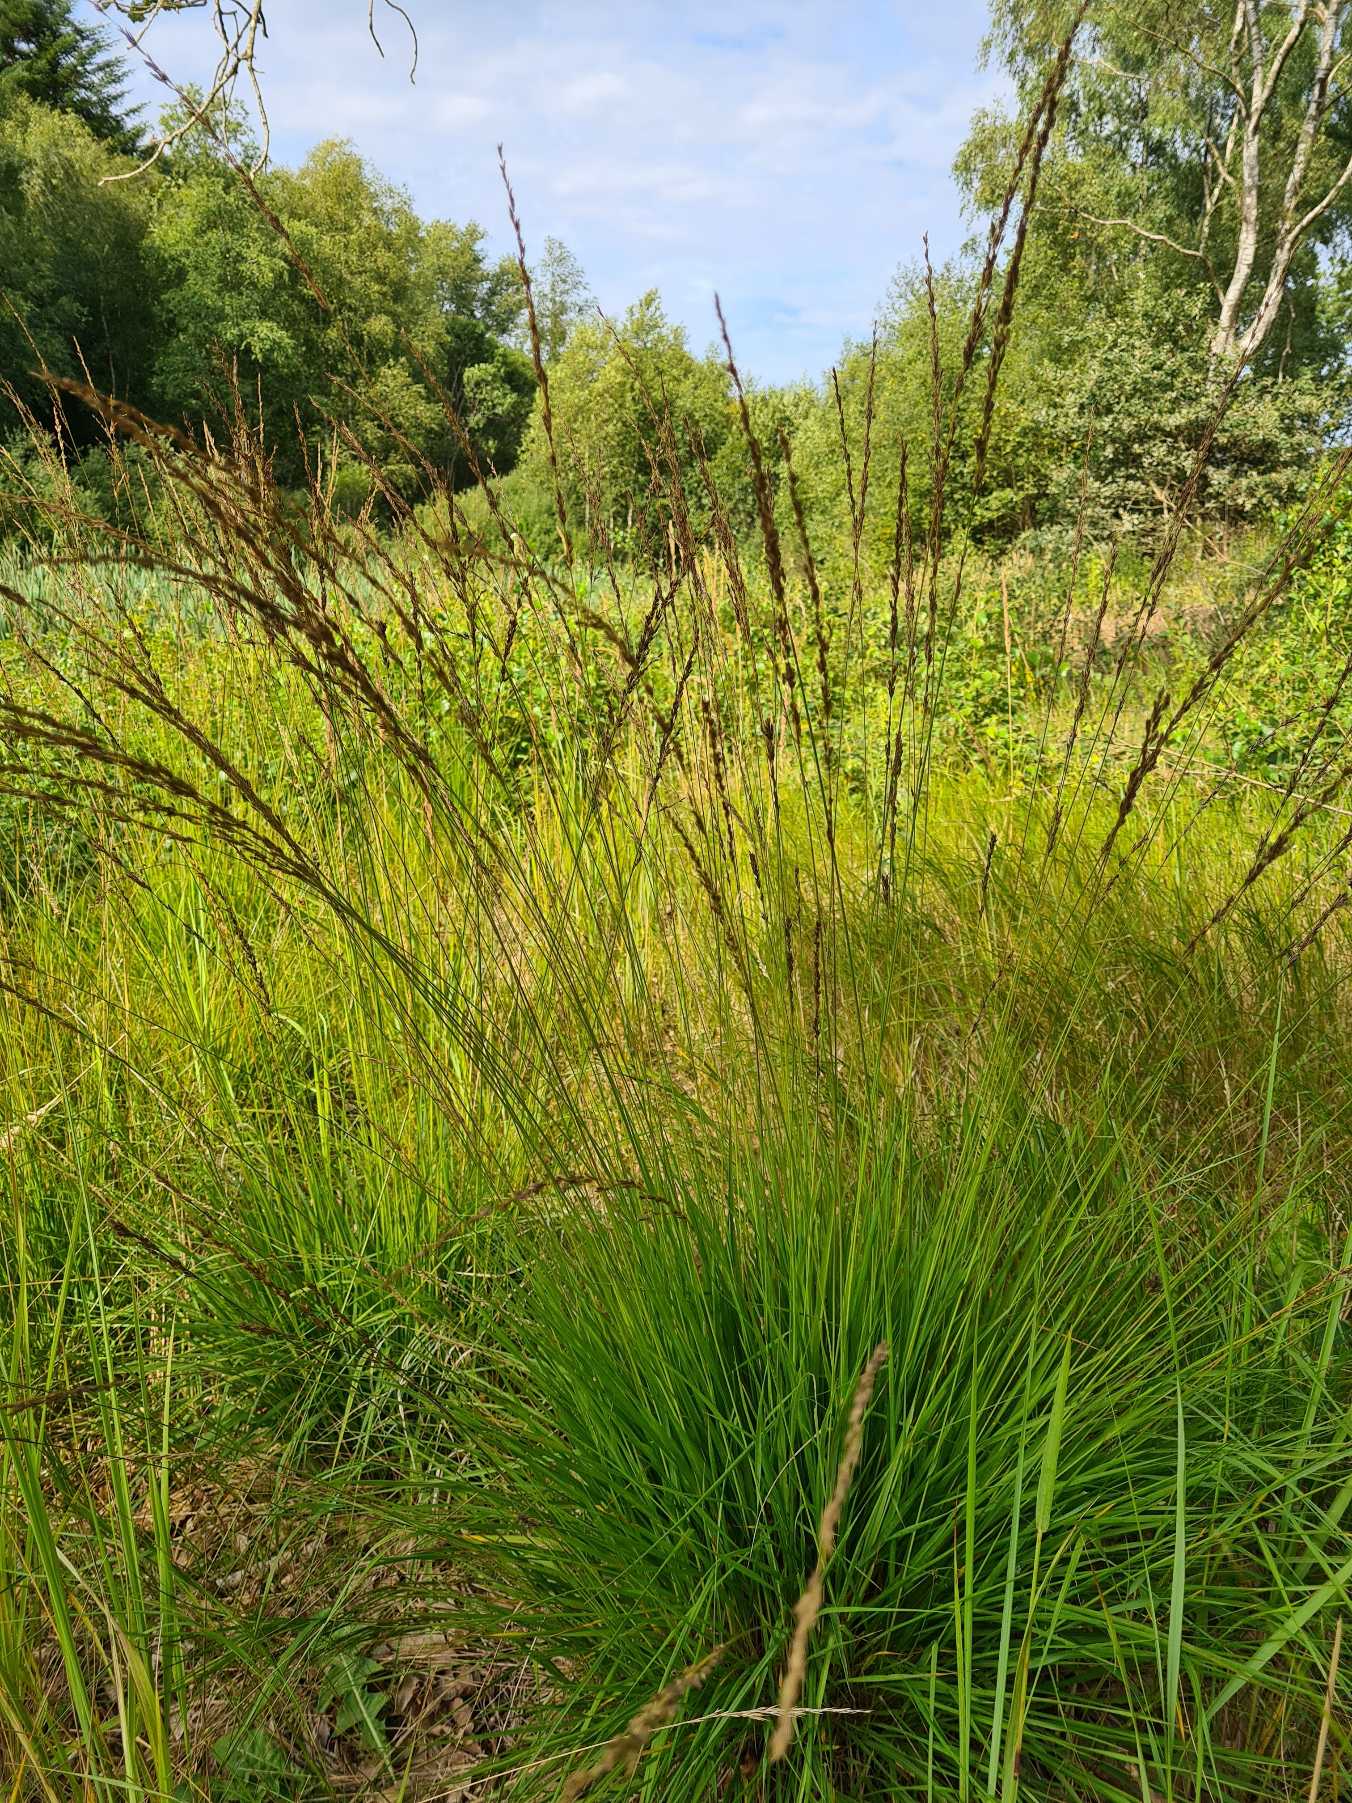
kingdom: Plantae
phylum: Tracheophyta
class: Liliopsida
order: Poales
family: Poaceae
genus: Molinia
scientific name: Molinia caerulea
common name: Blåtop
